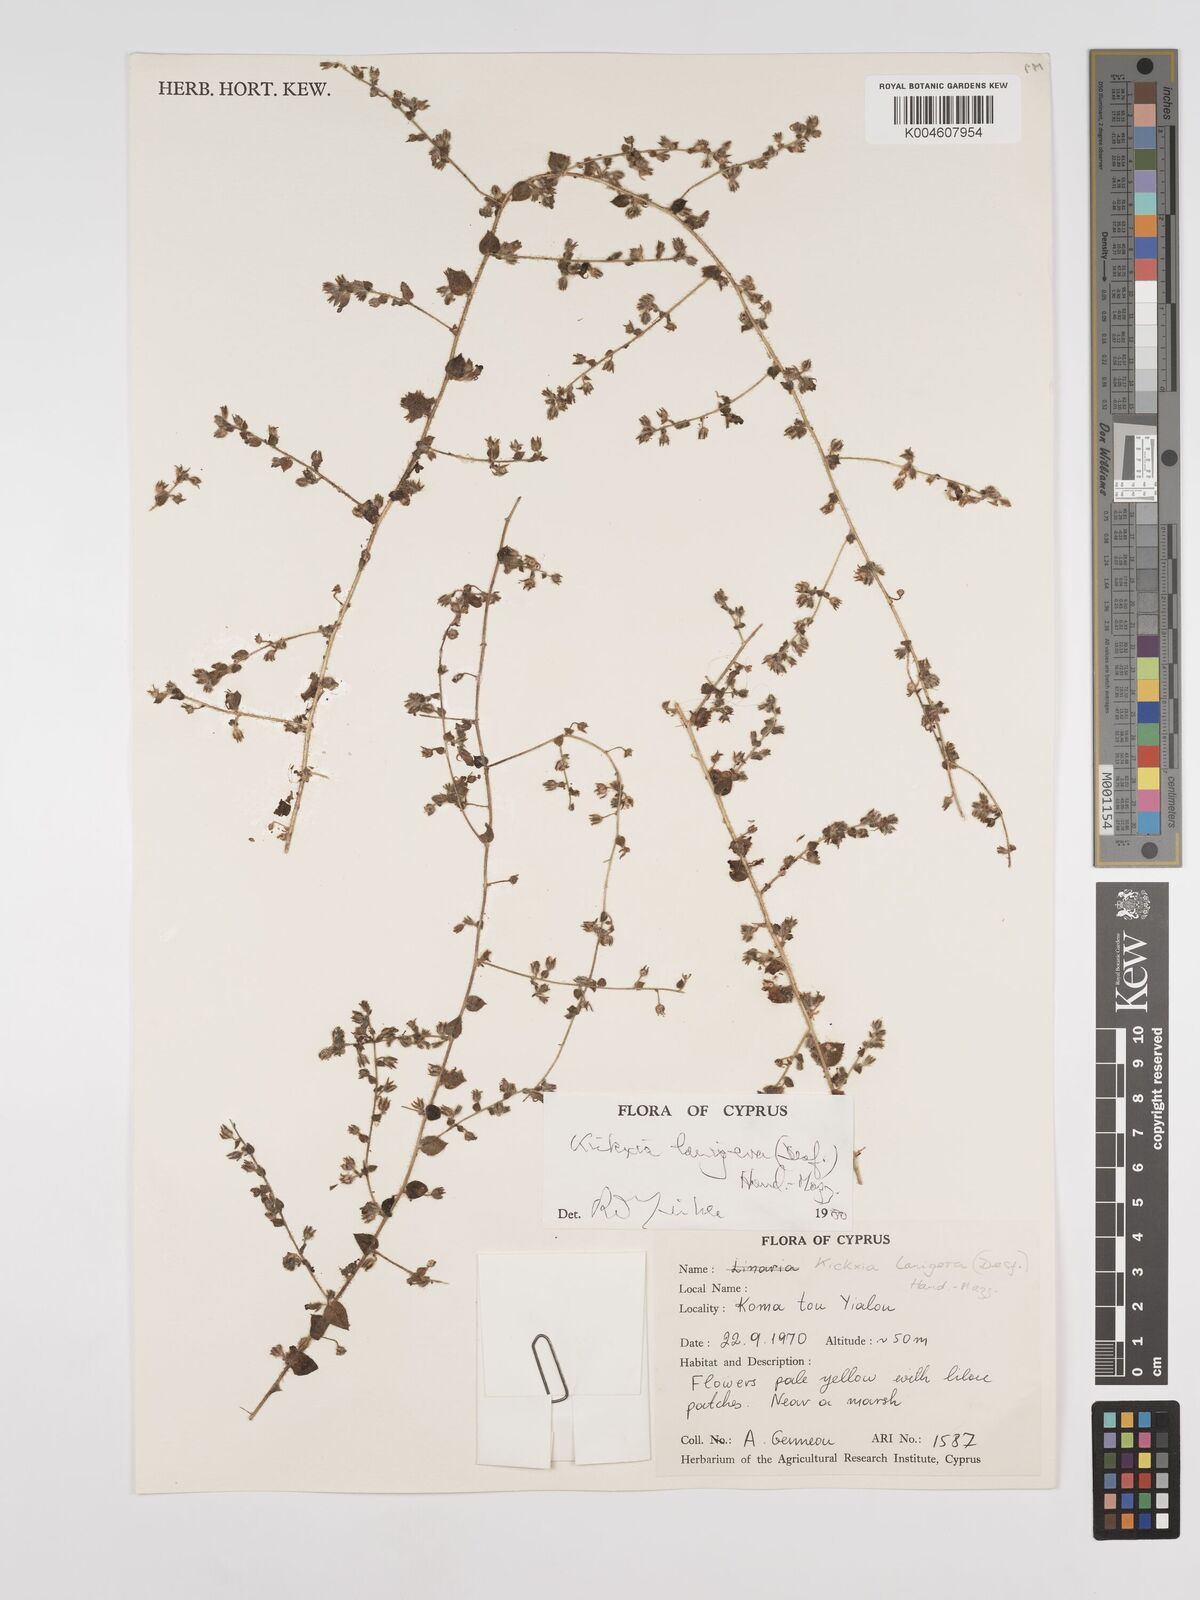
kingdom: Plantae
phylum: Tracheophyta
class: Magnoliopsida
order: Lamiales
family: Plantaginaceae
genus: Kickxia
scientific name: Kickxia lanigera
